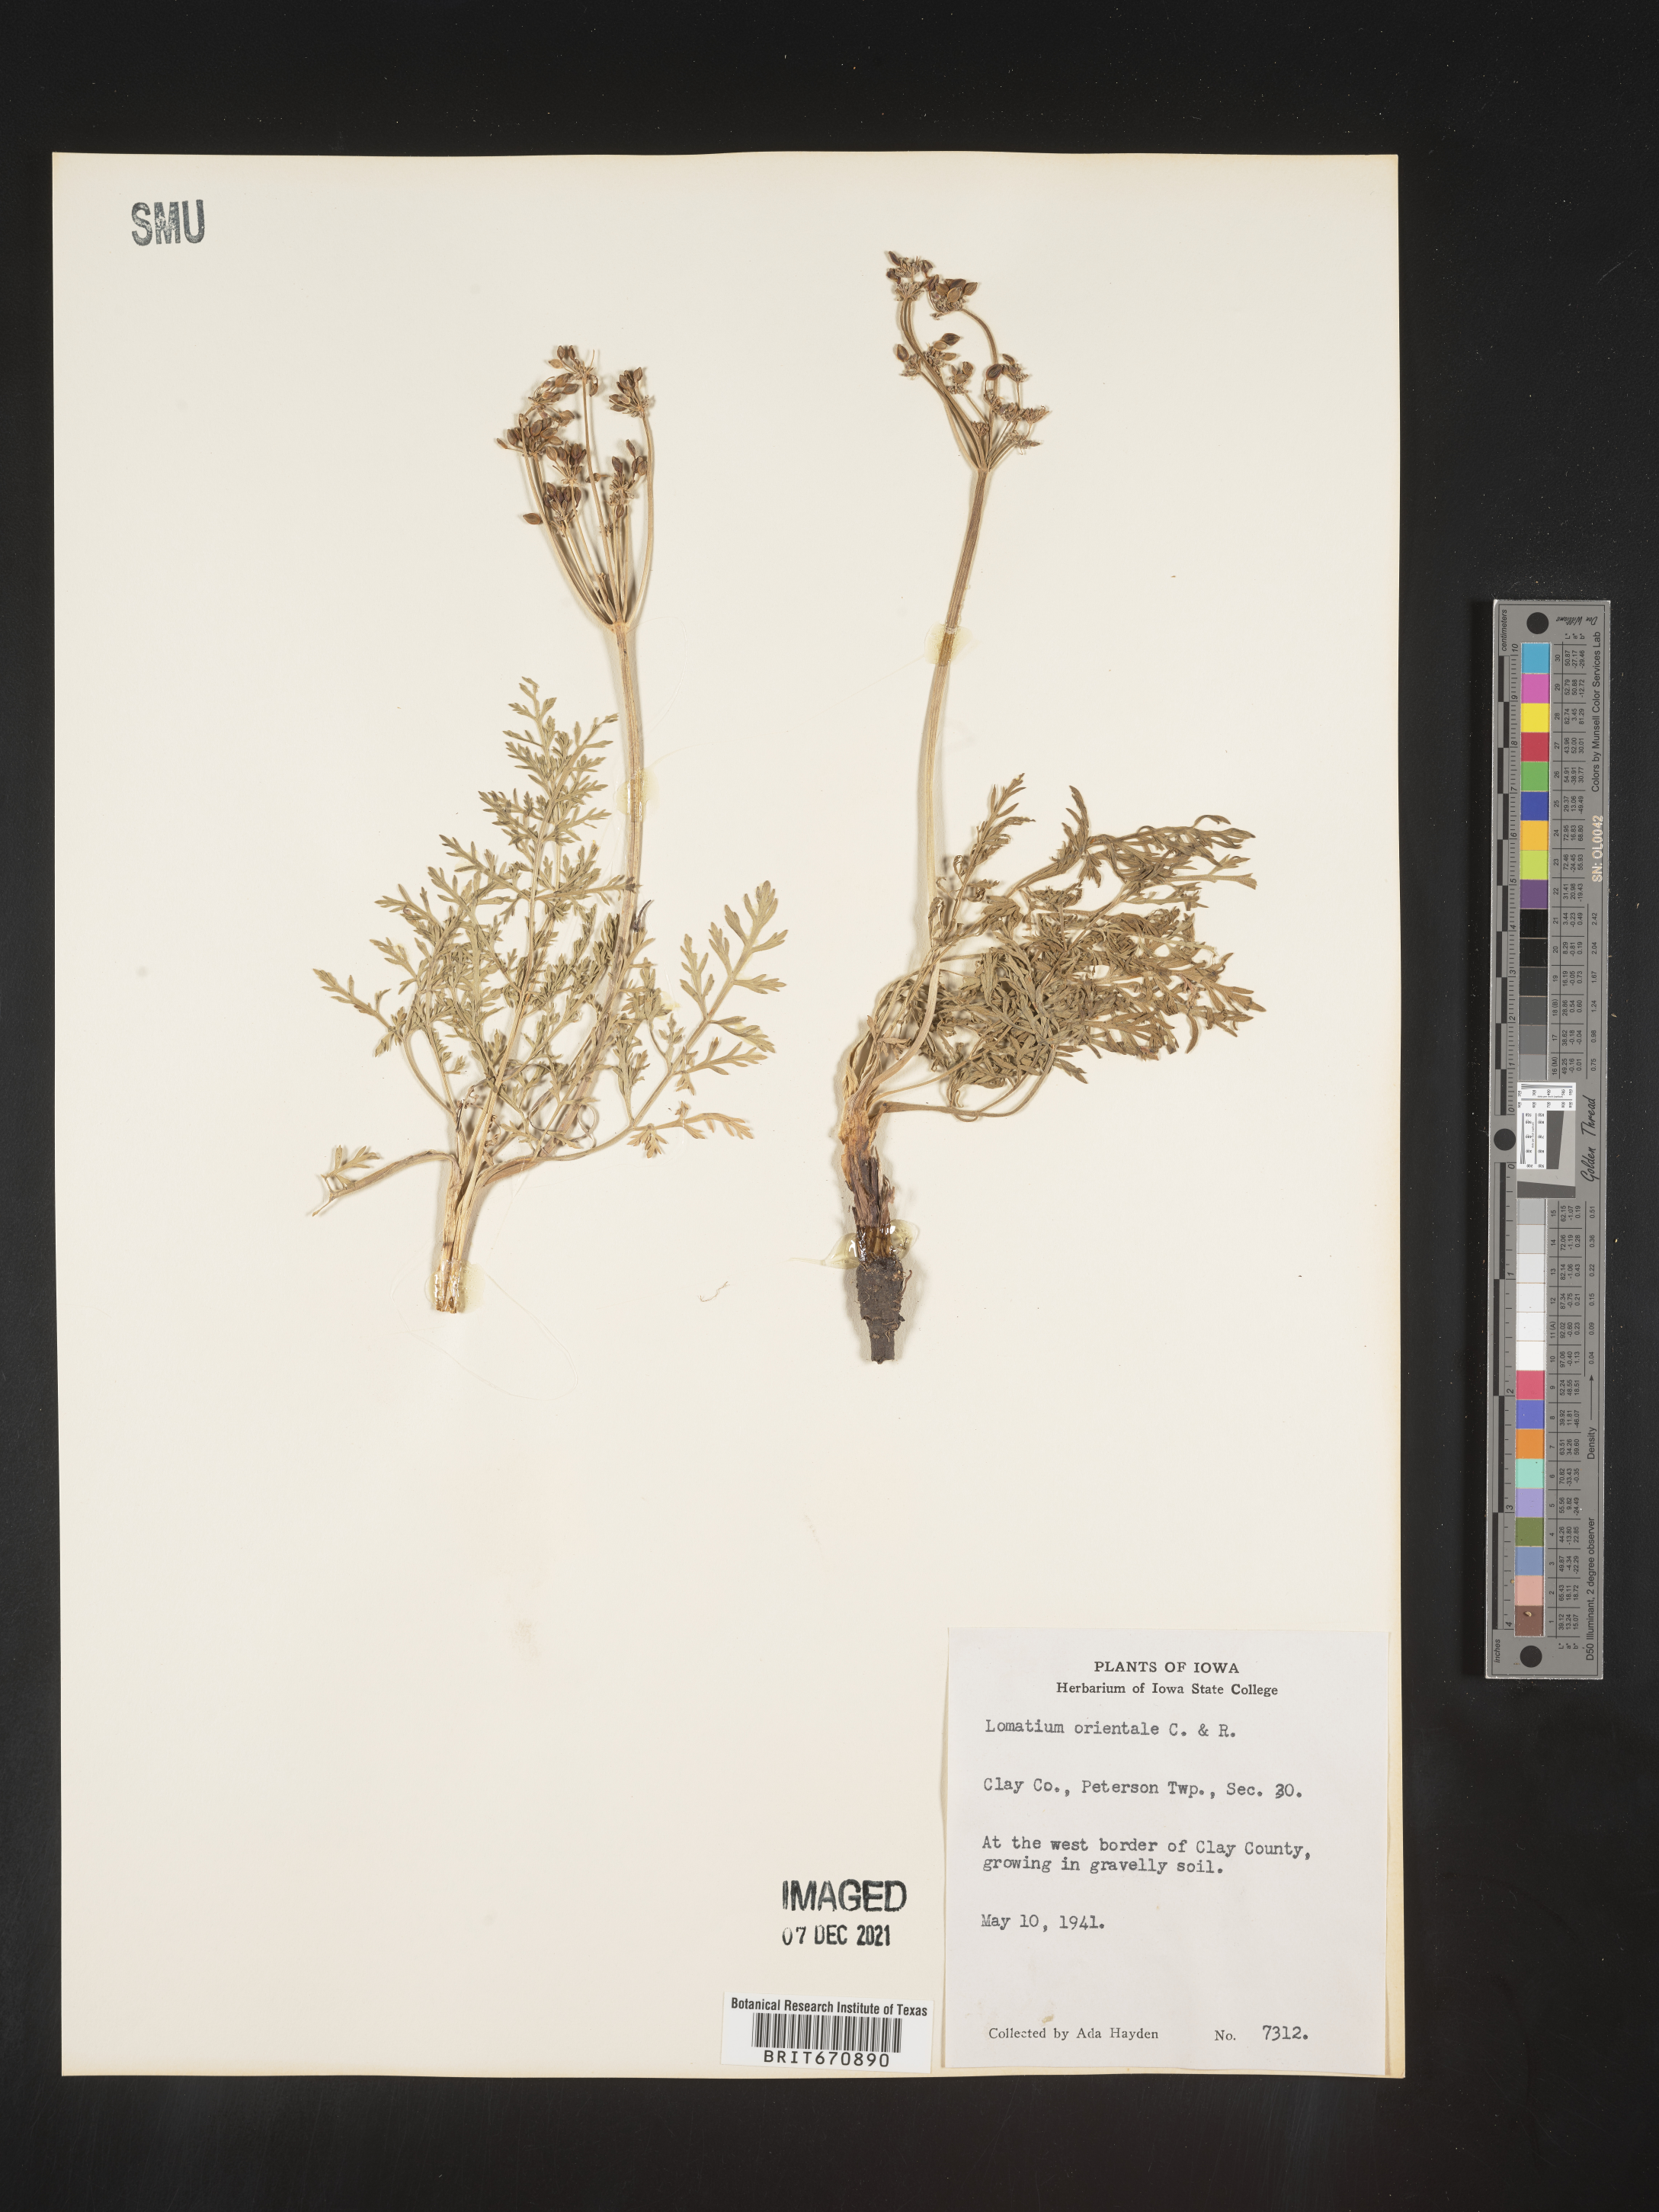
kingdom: Plantae
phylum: Tracheophyta
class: Magnoliopsida
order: Apiales
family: Apiaceae
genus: Lomatium
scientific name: Lomatium
